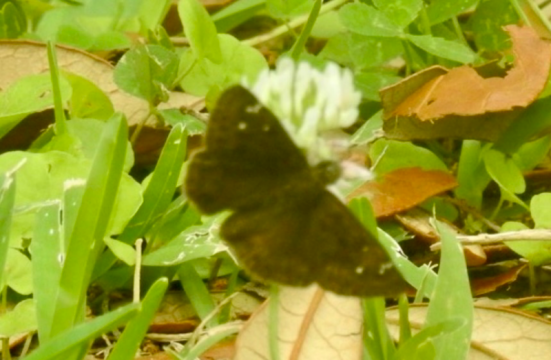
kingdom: Animalia
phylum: Arthropoda
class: Insecta
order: Lepidoptera
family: Hesperiidae
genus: Gesta
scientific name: Gesta
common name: Horace's Duskywing
